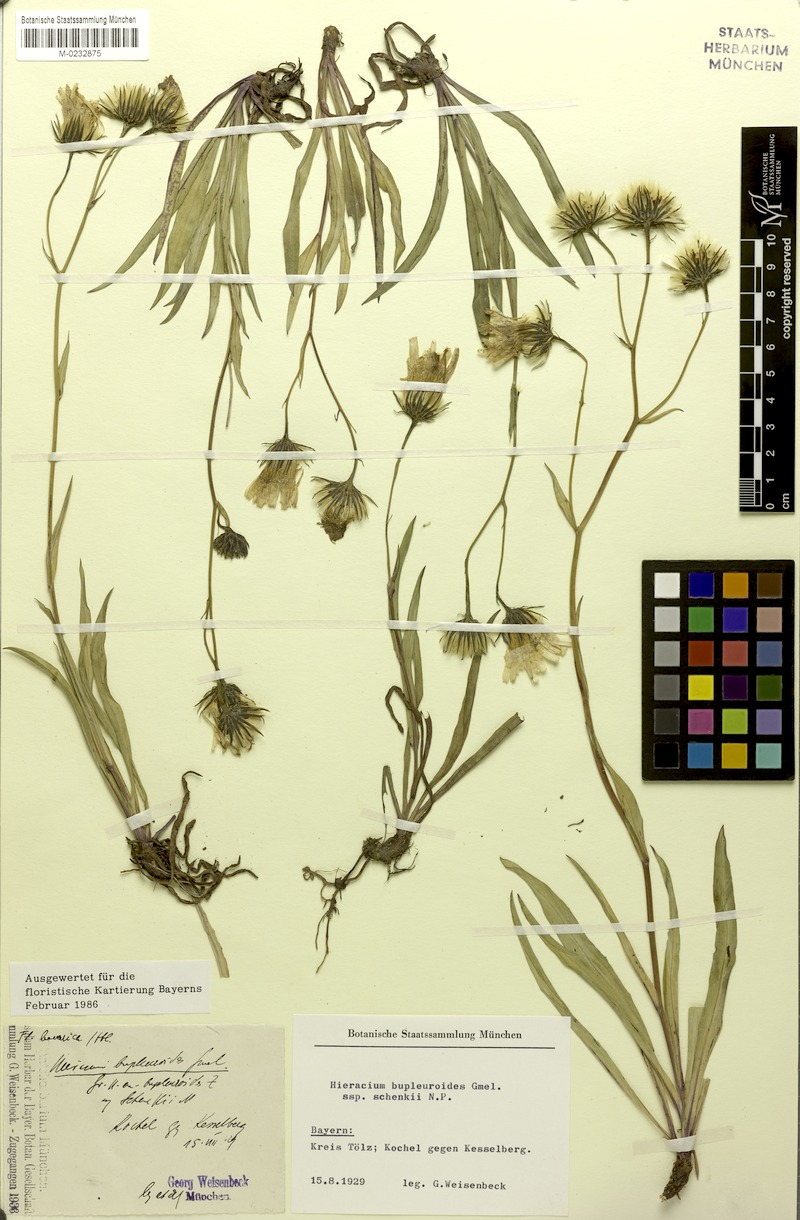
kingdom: Plantae
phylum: Tracheophyta
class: Magnoliopsida
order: Asterales
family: Asteraceae
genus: Hieracium
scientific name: Hieracium bupleuroides
